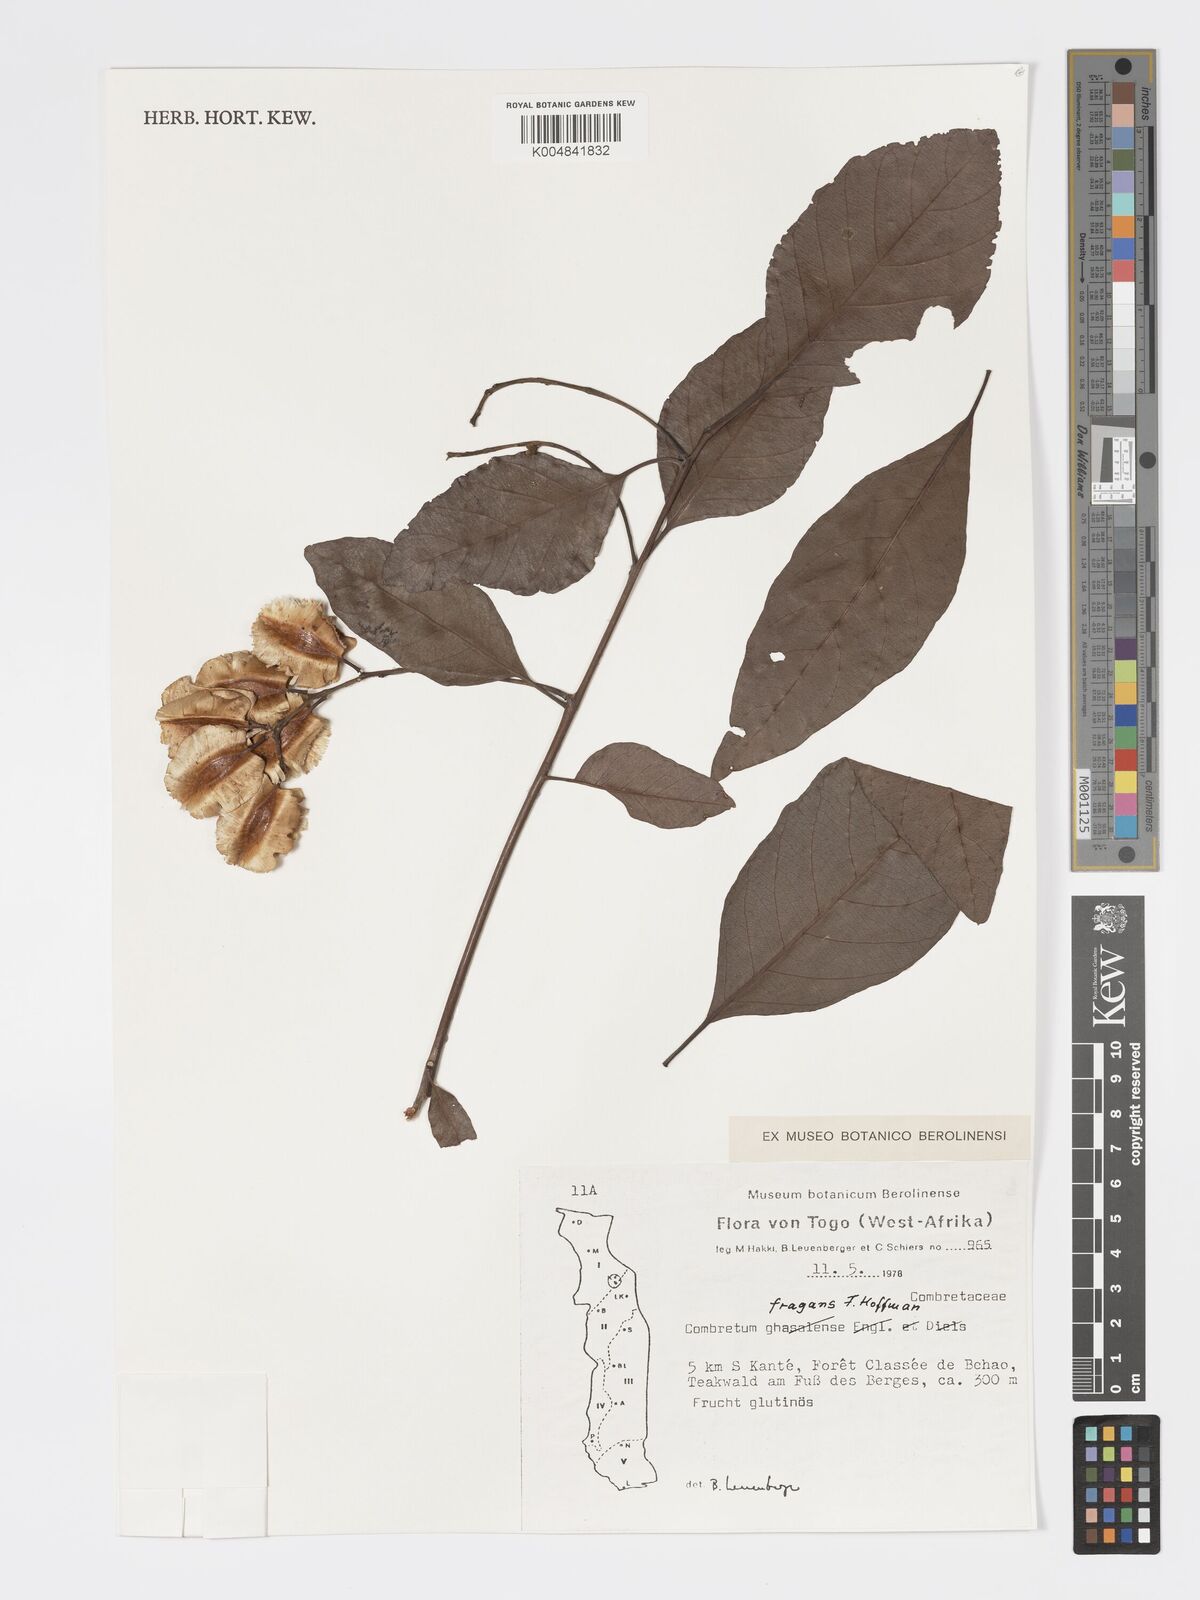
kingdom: Plantae
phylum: Tracheophyta
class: Magnoliopsida
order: Myrtales
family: Combretaceae
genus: Combretum
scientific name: Combretum adenogonium
